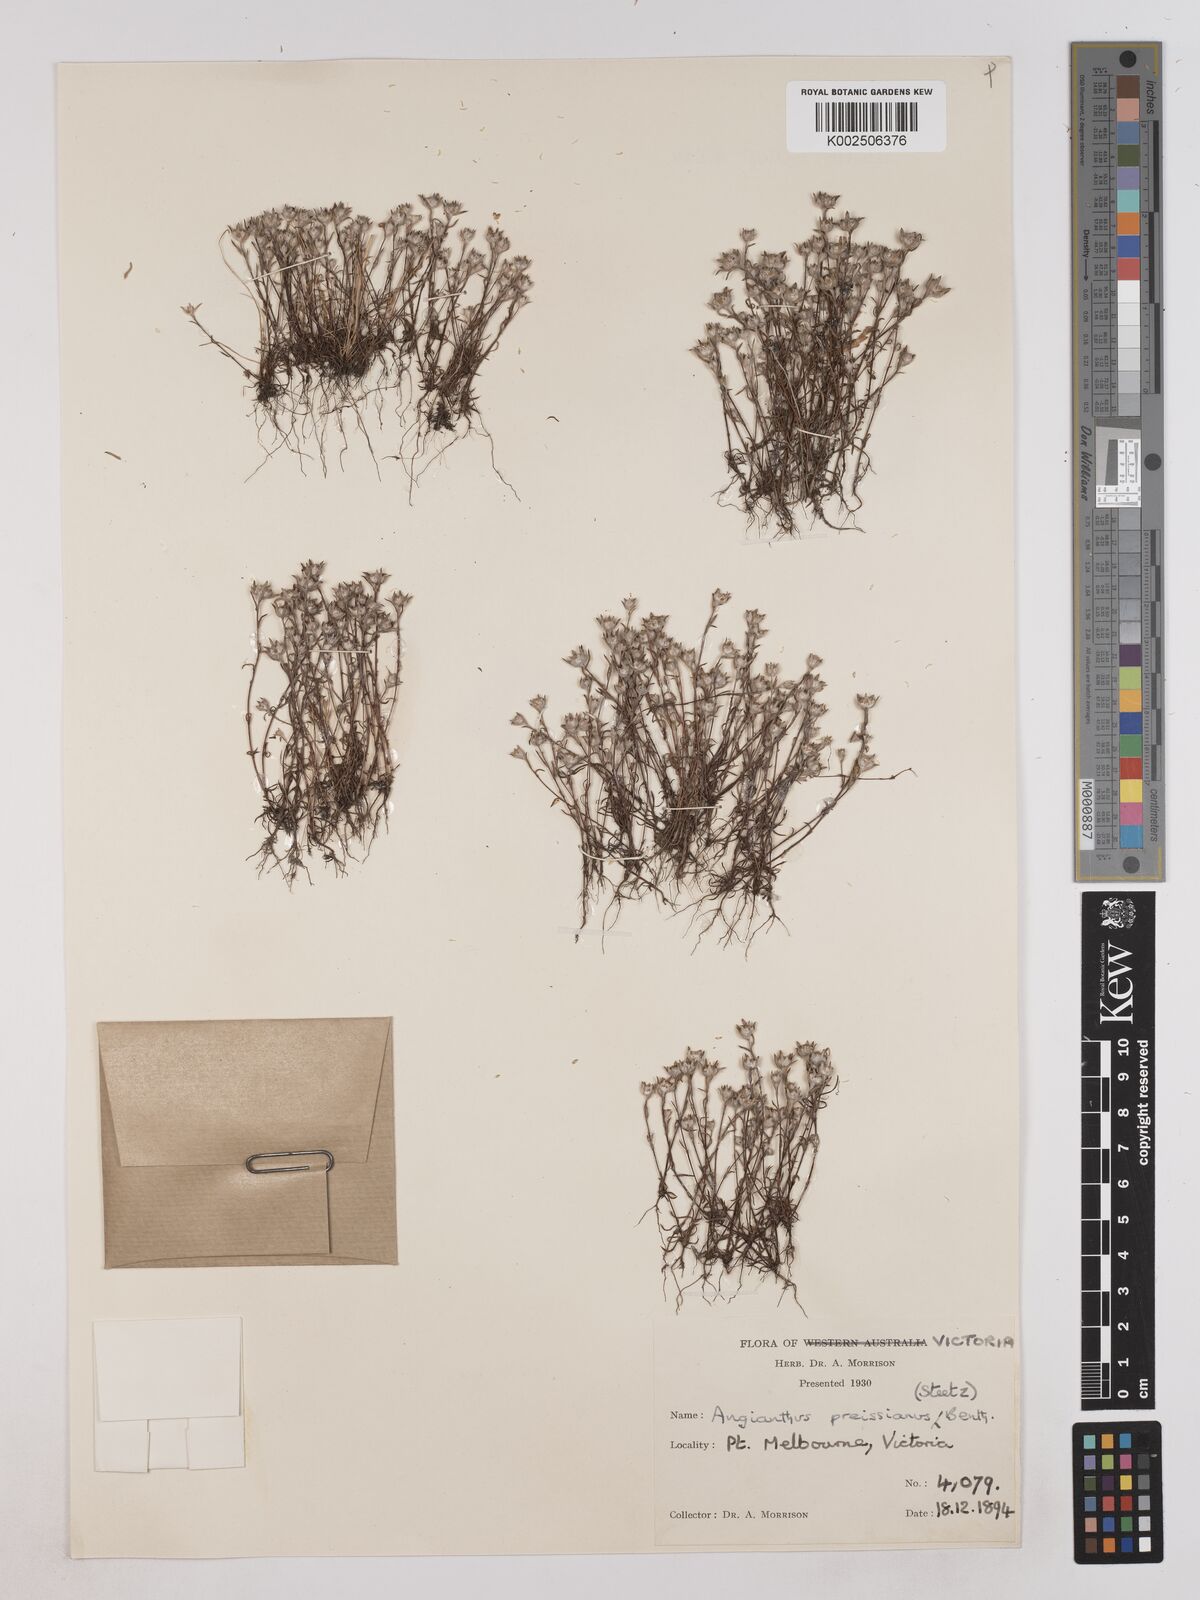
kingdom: Plantae
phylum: Tracheophyta
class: Magnoliopsida
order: Asterales
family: Asteraceae
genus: Angianthus
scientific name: Angianthus preissianus
